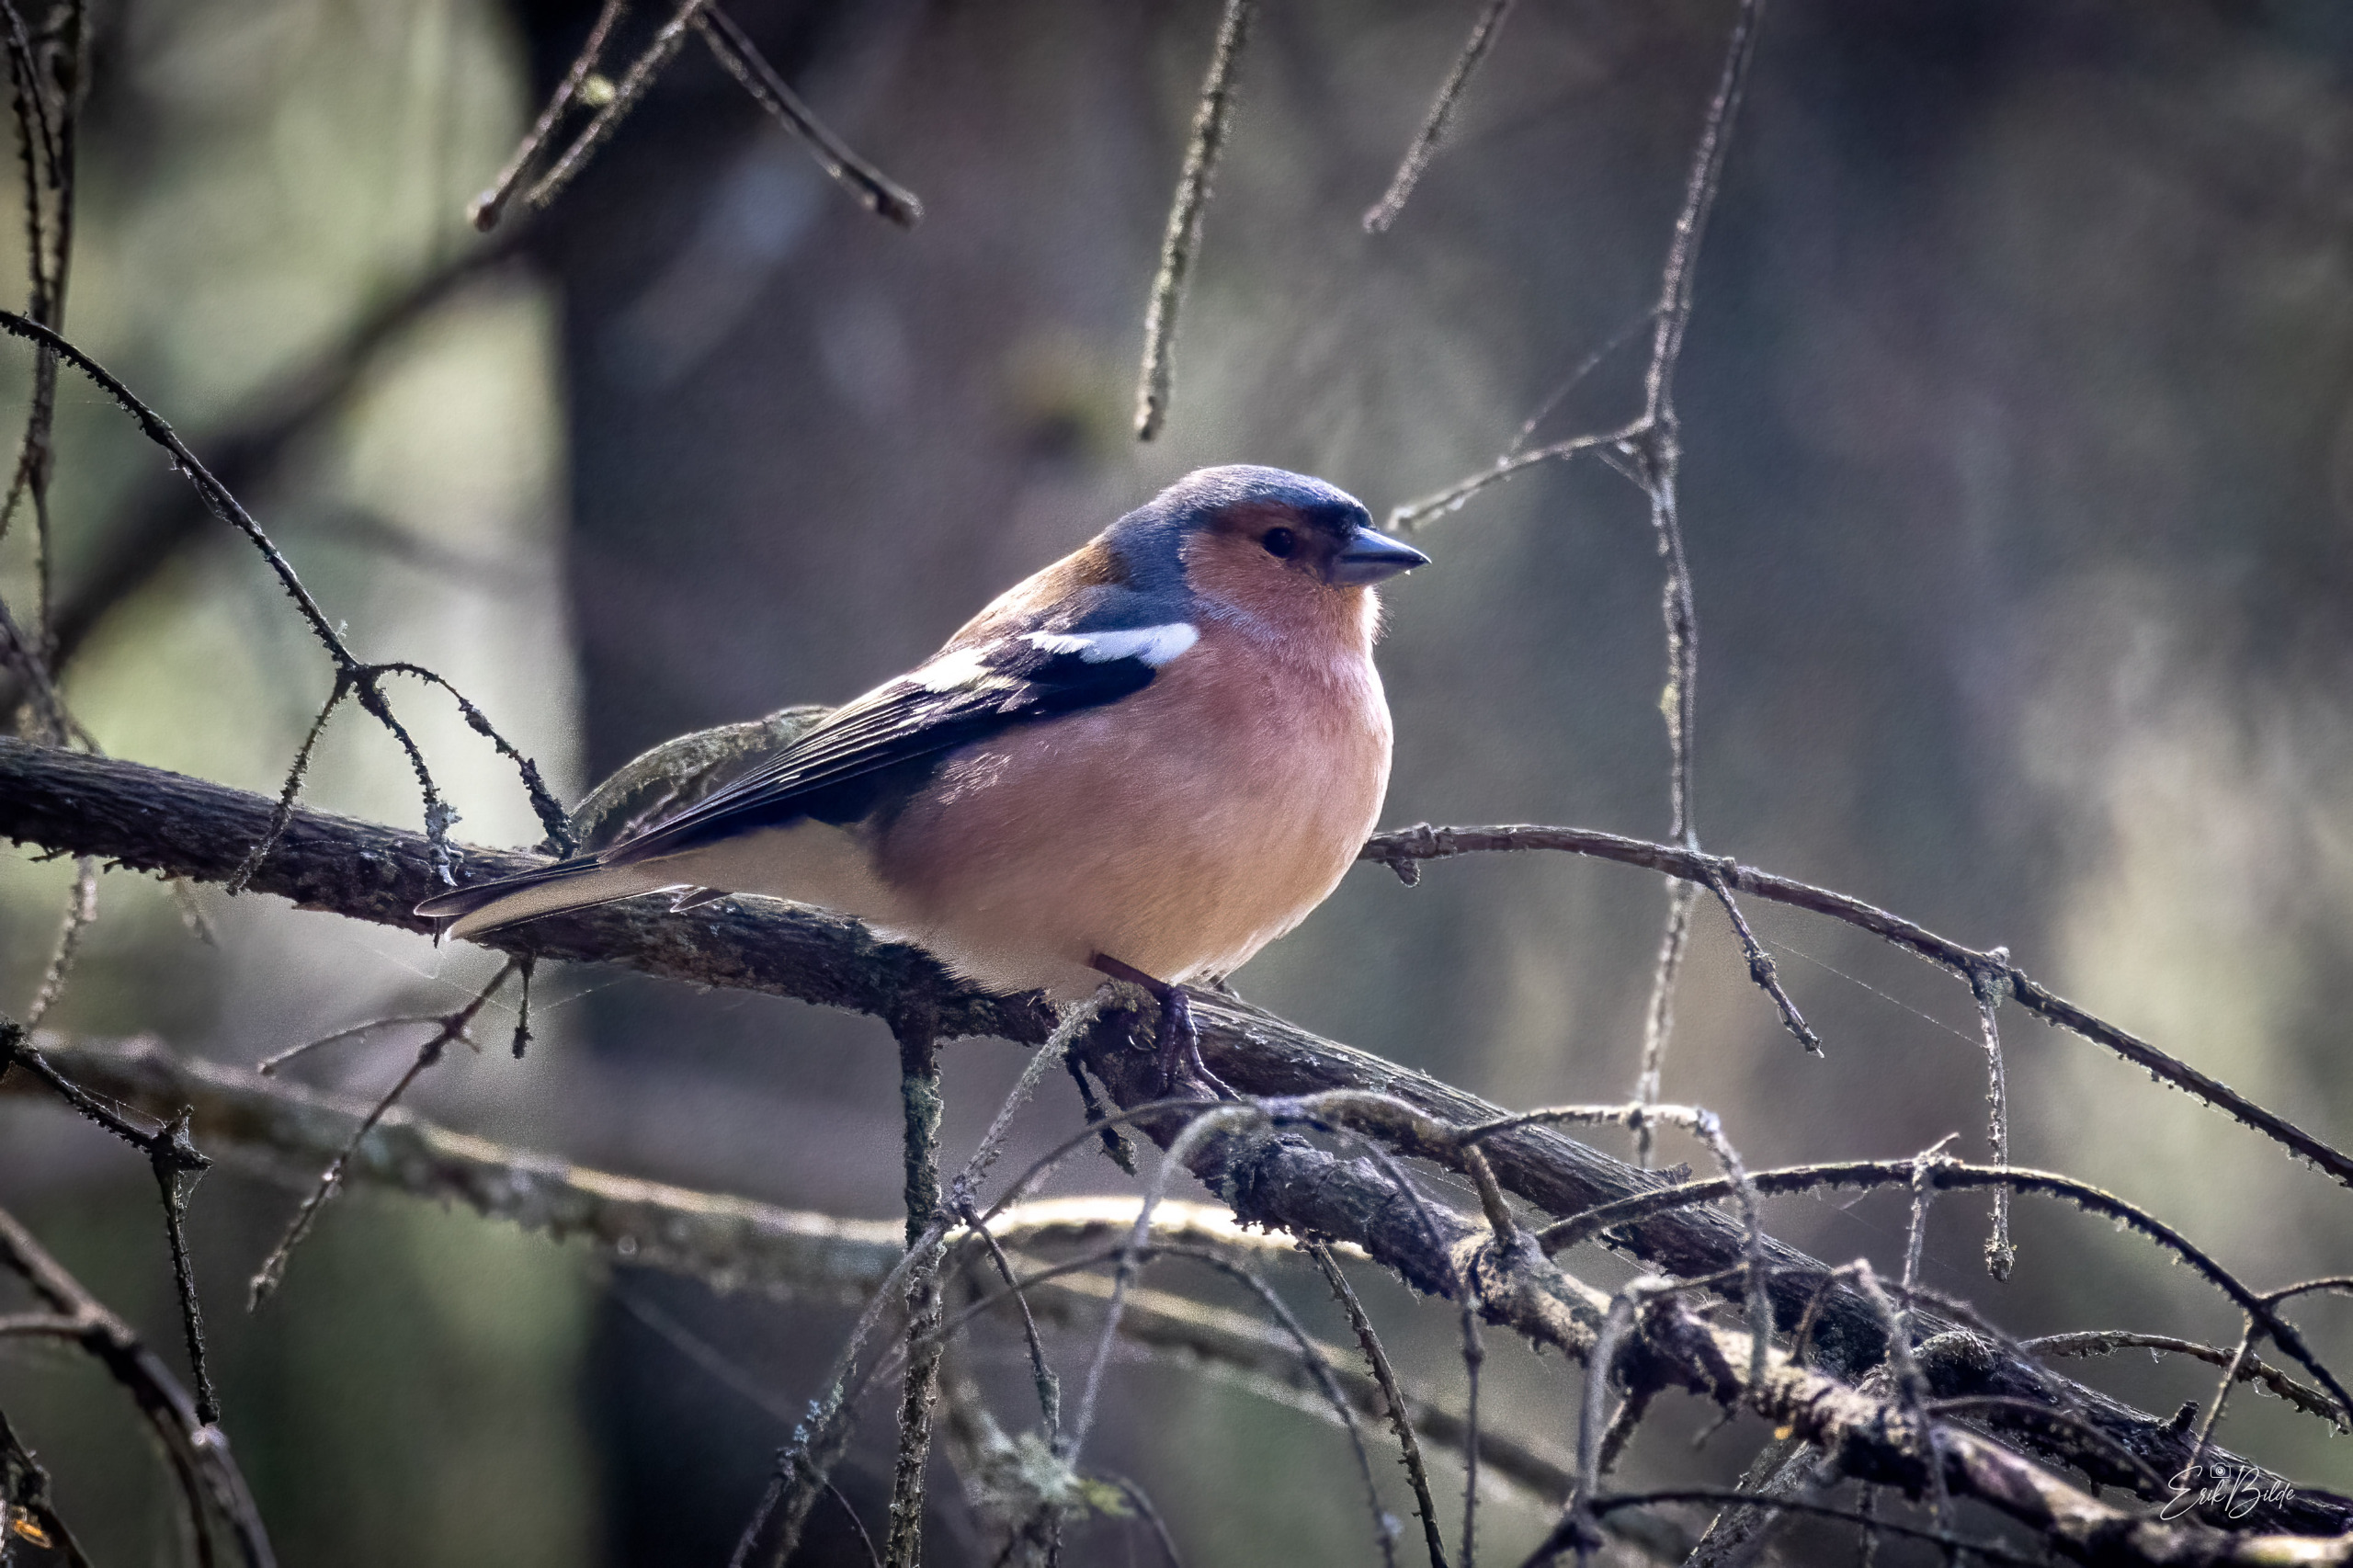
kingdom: Animalia
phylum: Chordata
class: Aves
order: Passeriformes
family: Fringillidae
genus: Fringilla
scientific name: Fringilla coelebs
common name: Bogfinke
